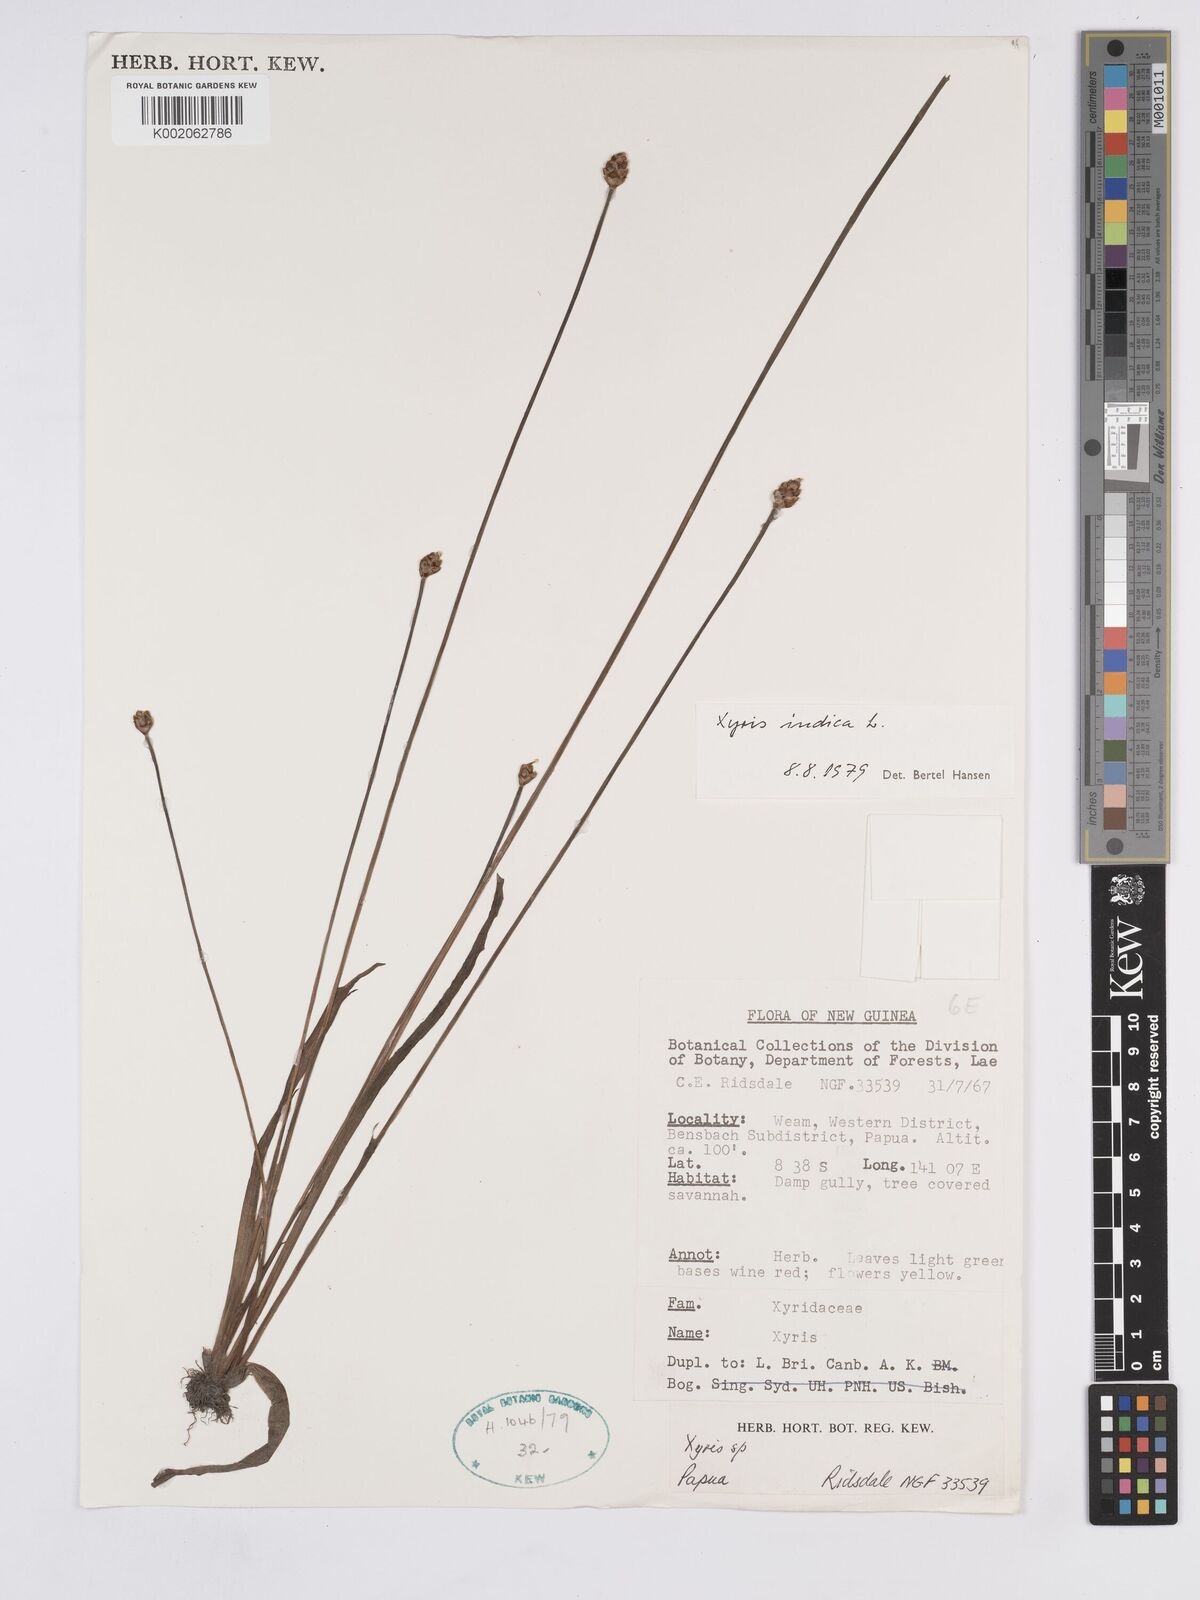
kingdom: Plantae
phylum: Tracheophyta
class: Liliopsida
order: Poales
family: Xyridaceae
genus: Xyris
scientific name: Xyris indica
